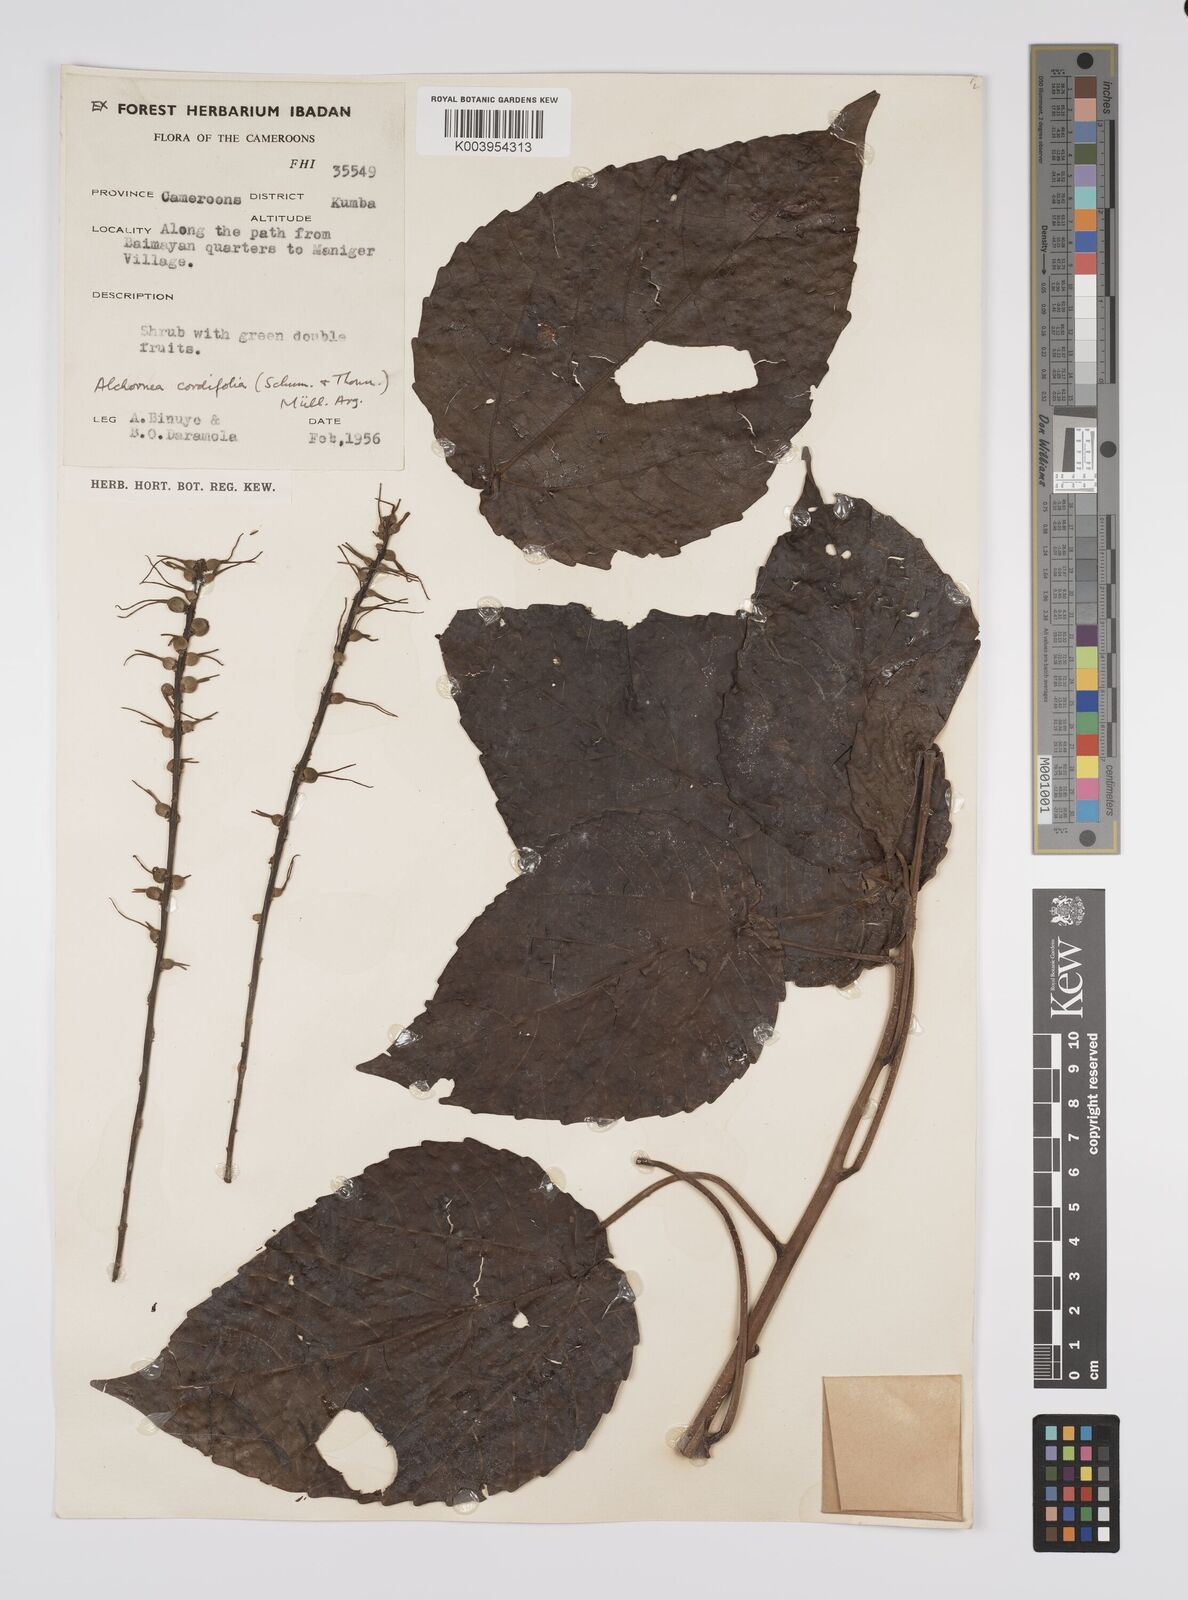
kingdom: Plantae
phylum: Tracheophyta
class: Magnoliopsida
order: Malpighiales
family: Euphorbiaceae
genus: Alchornea
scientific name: Alchornea cordifolia
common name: Christmasbush
